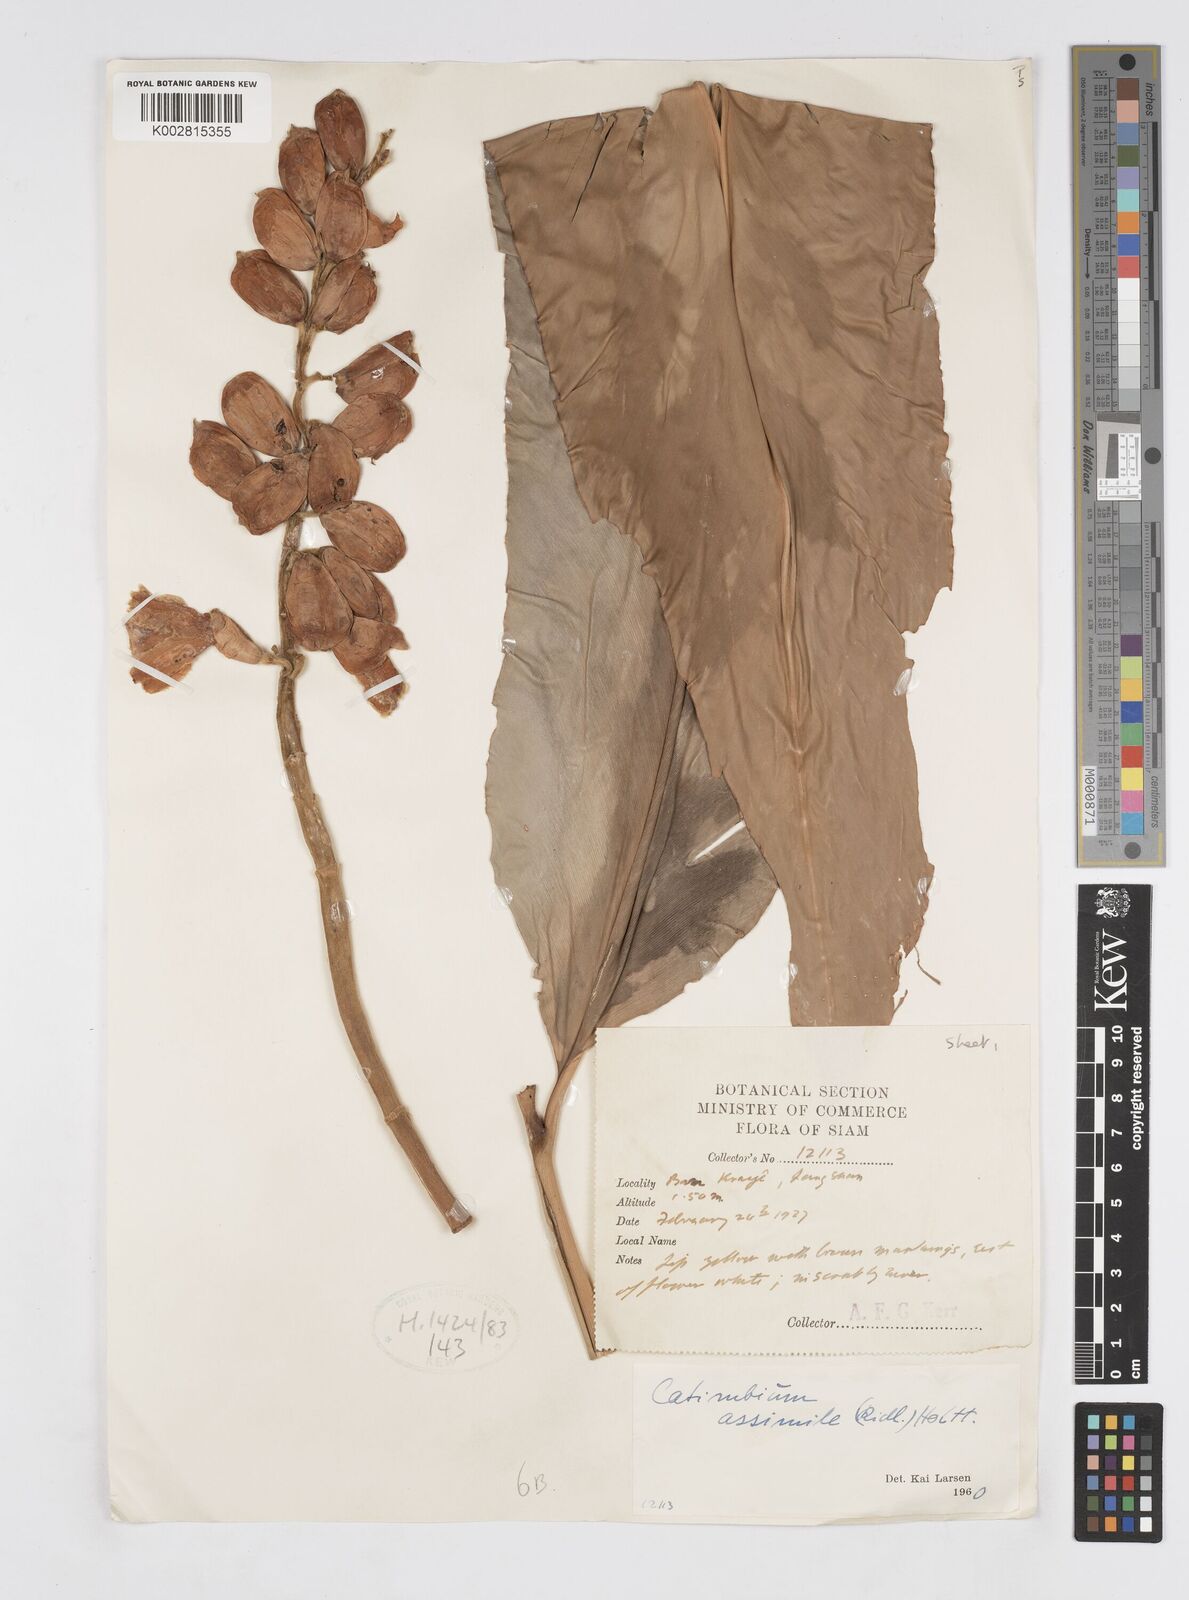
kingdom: Plantae
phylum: Tracheophyta
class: Liliopsida
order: Zingiberales
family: Zingiberaceae
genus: Alpinia
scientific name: Alpinia assimilis
